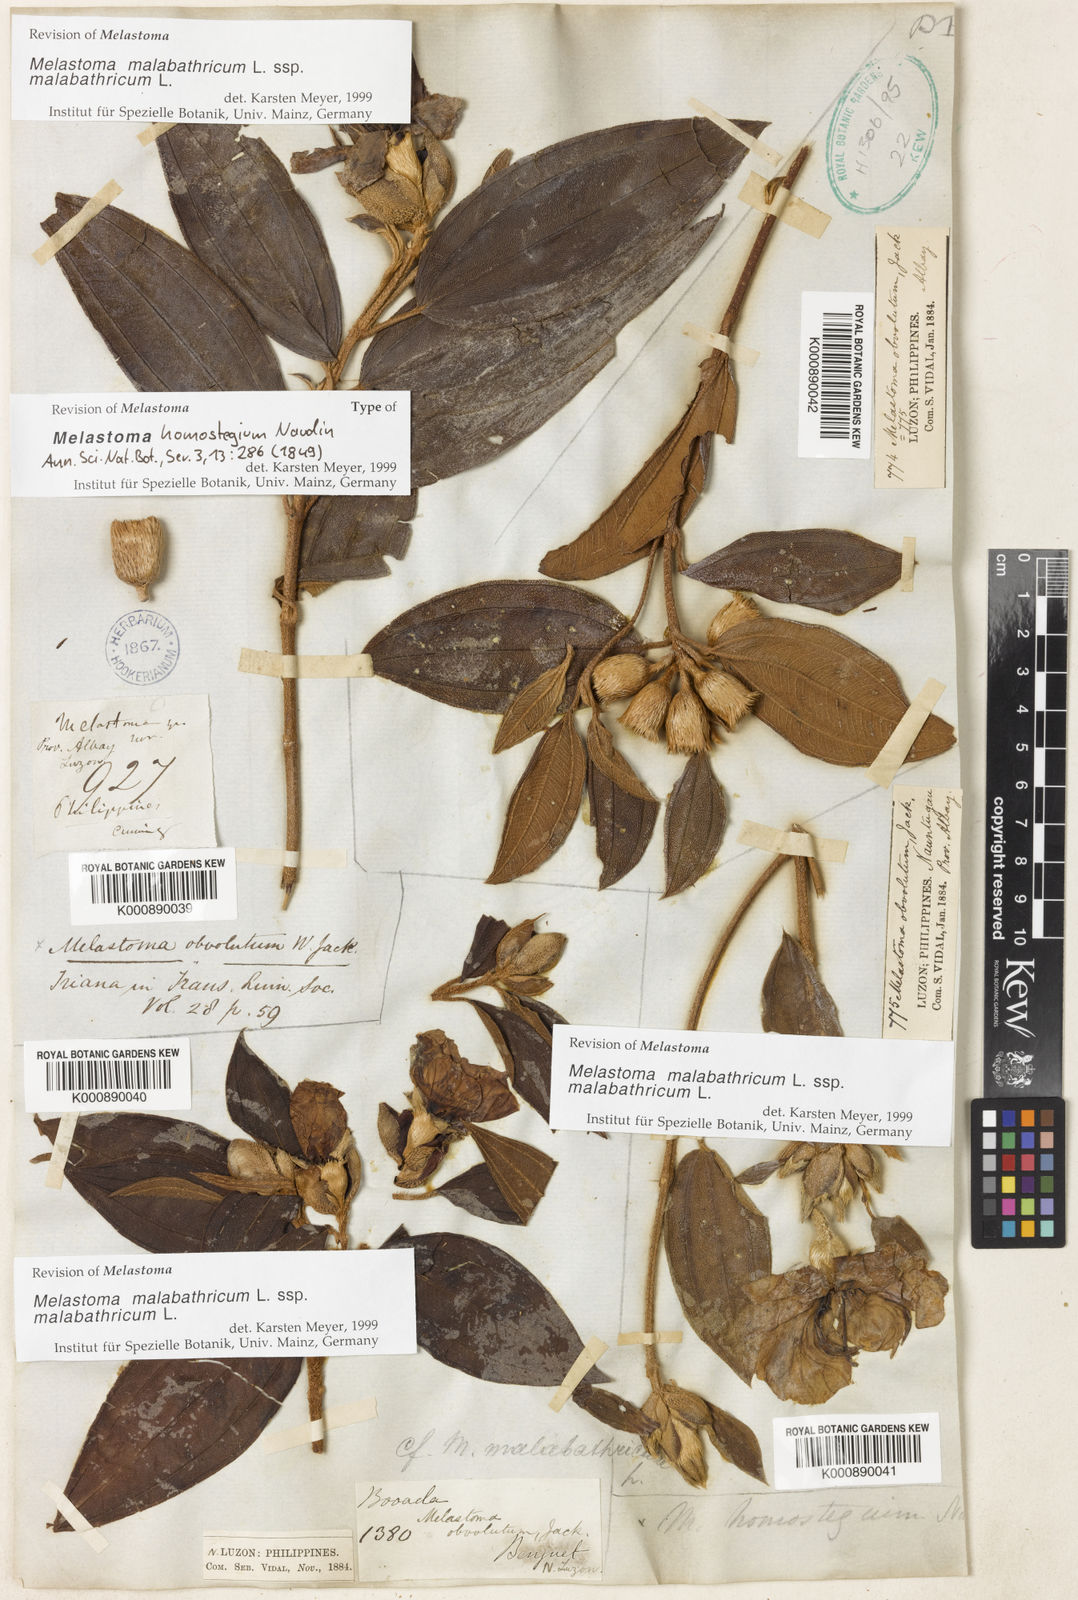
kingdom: Plantae
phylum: Tracheophyta
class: Magnoliopsida
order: Myrtales
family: Melastomataceae
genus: Melastoma
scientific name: Melastoma malabathricum
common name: Indian-rhododendron
